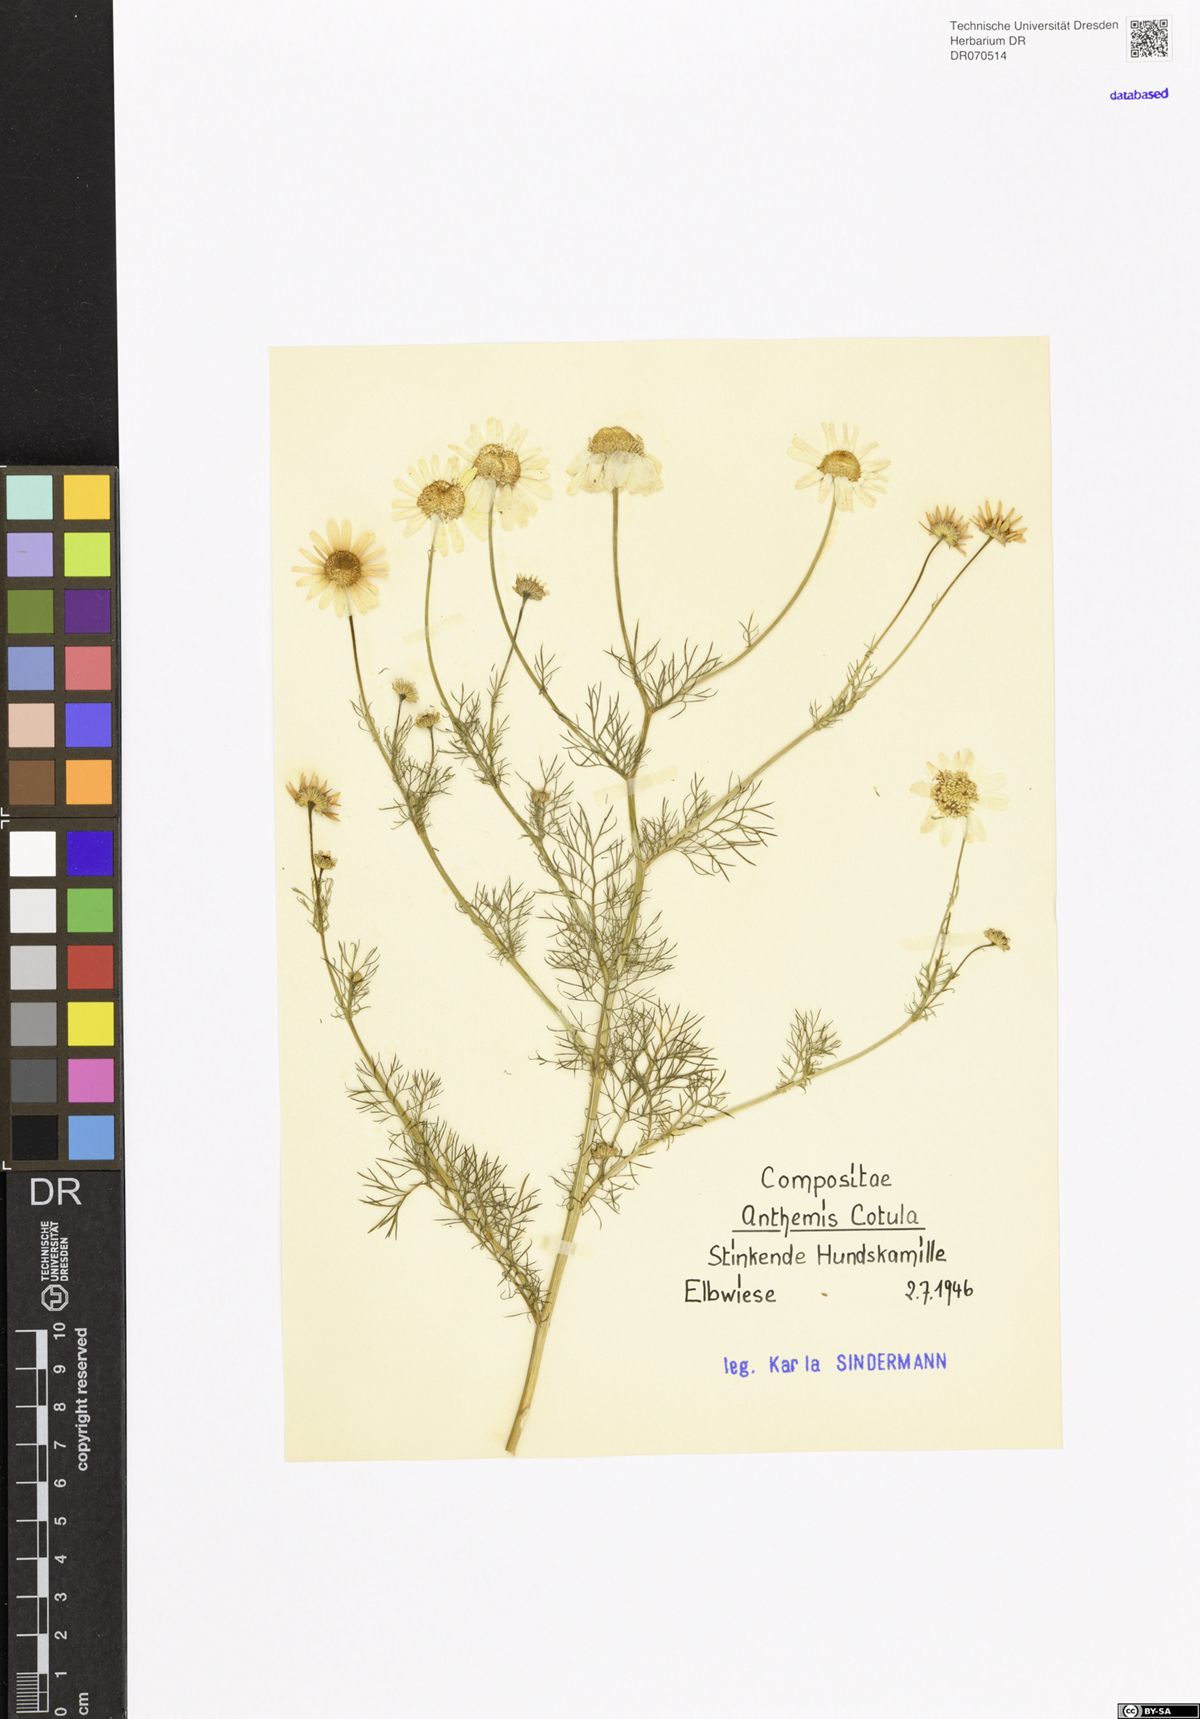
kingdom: Plantae
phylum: Tracheophyta
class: Magnoliopsida
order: Asterales
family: Asteraceae
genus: Anthemis
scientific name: Anthemis cotula
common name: Stinking chamomile
